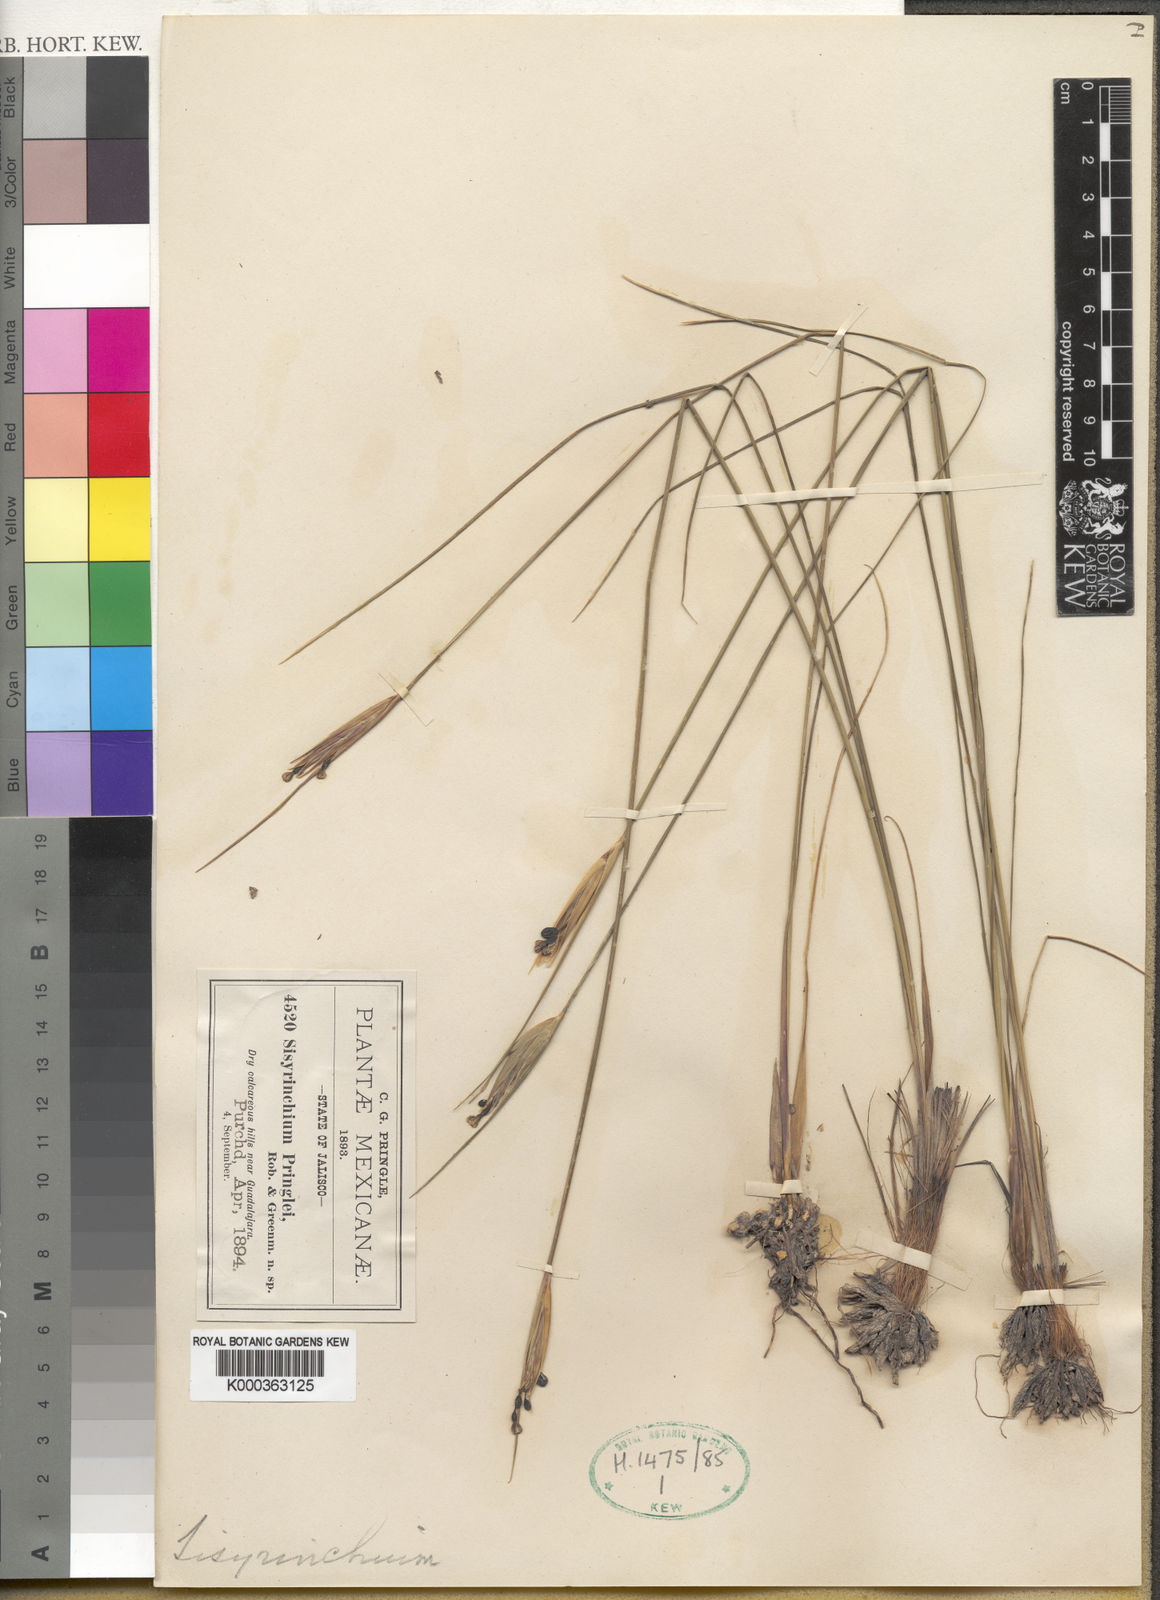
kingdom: Plantae
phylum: Tracheophyta
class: Liliopsida
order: Asparagales
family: Iridaceae
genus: Sisyrinchium
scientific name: Sisyrinchium pringlei
